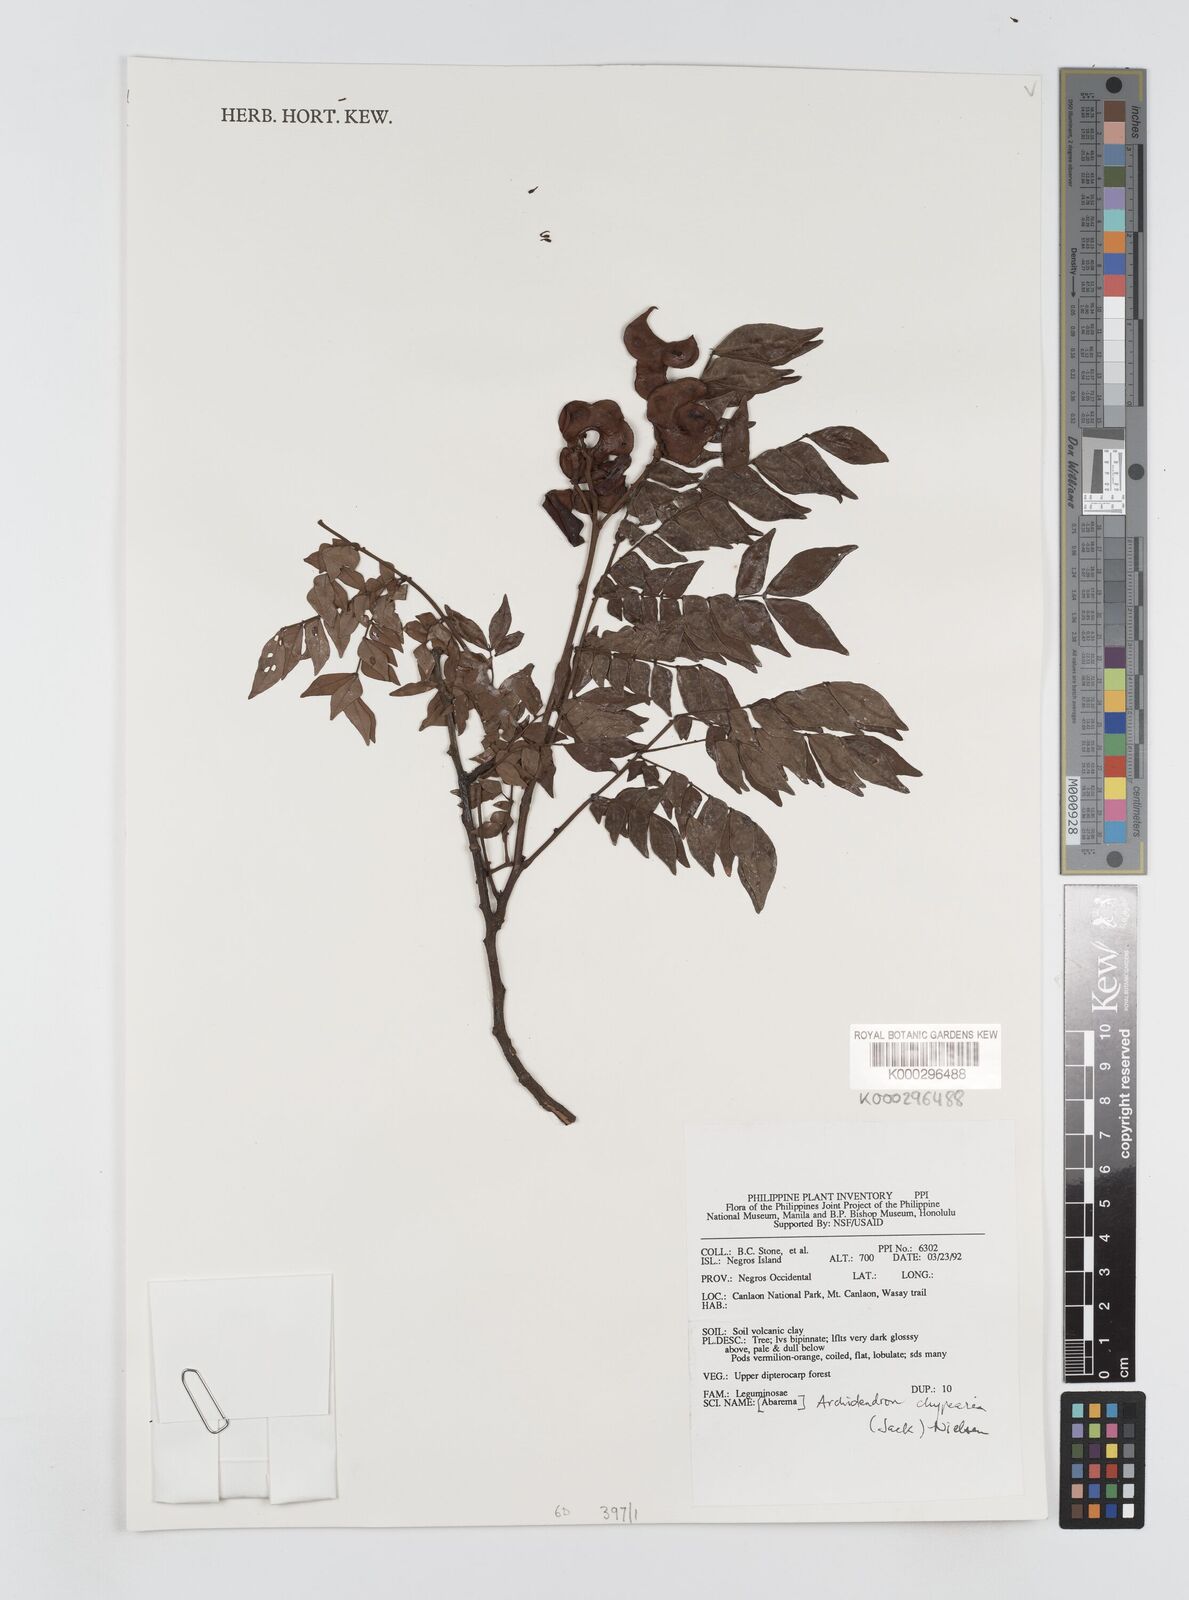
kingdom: Plantae
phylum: Tracheophyta
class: Magnoliopsida
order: Fabales
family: Fabaceae
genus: Archidendron
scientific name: Archidendron clypearia
